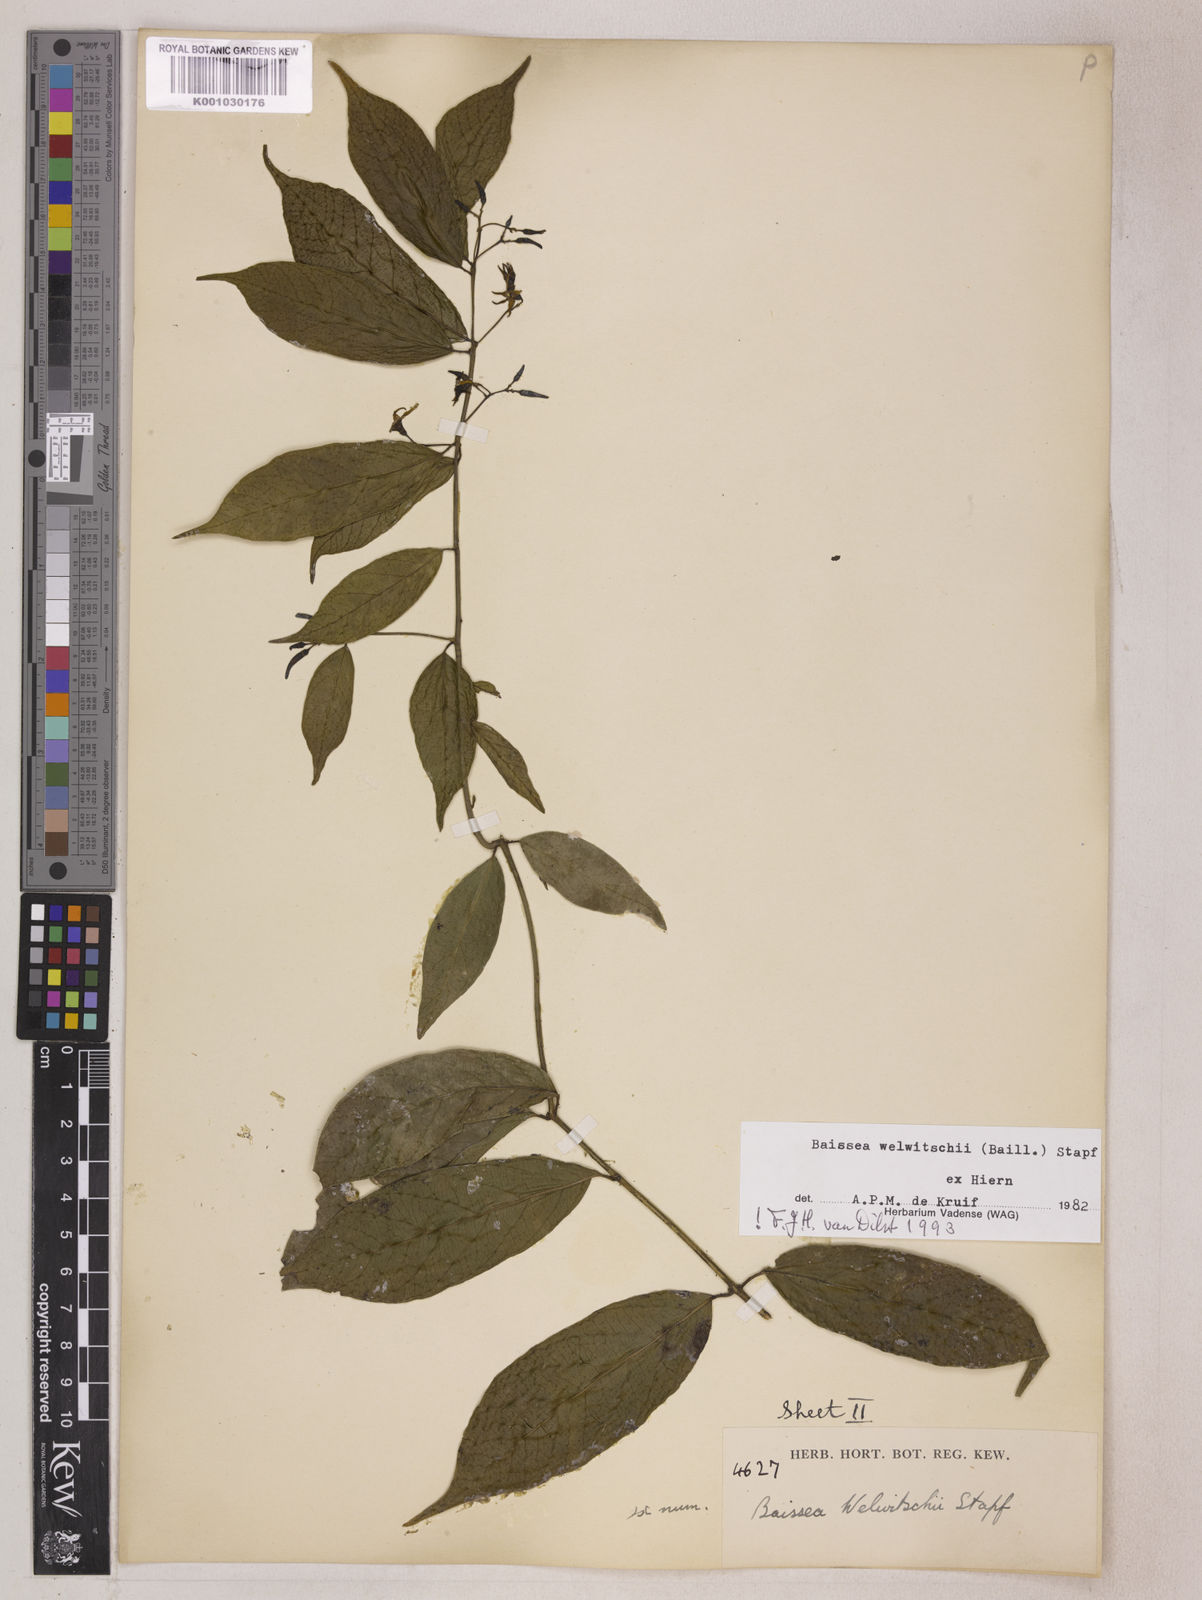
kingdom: Plantae
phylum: Tracheophyta
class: Magnoliopsida
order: Gentianales
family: Apocynaceae
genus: Baissea
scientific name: Baissea welwitschii
